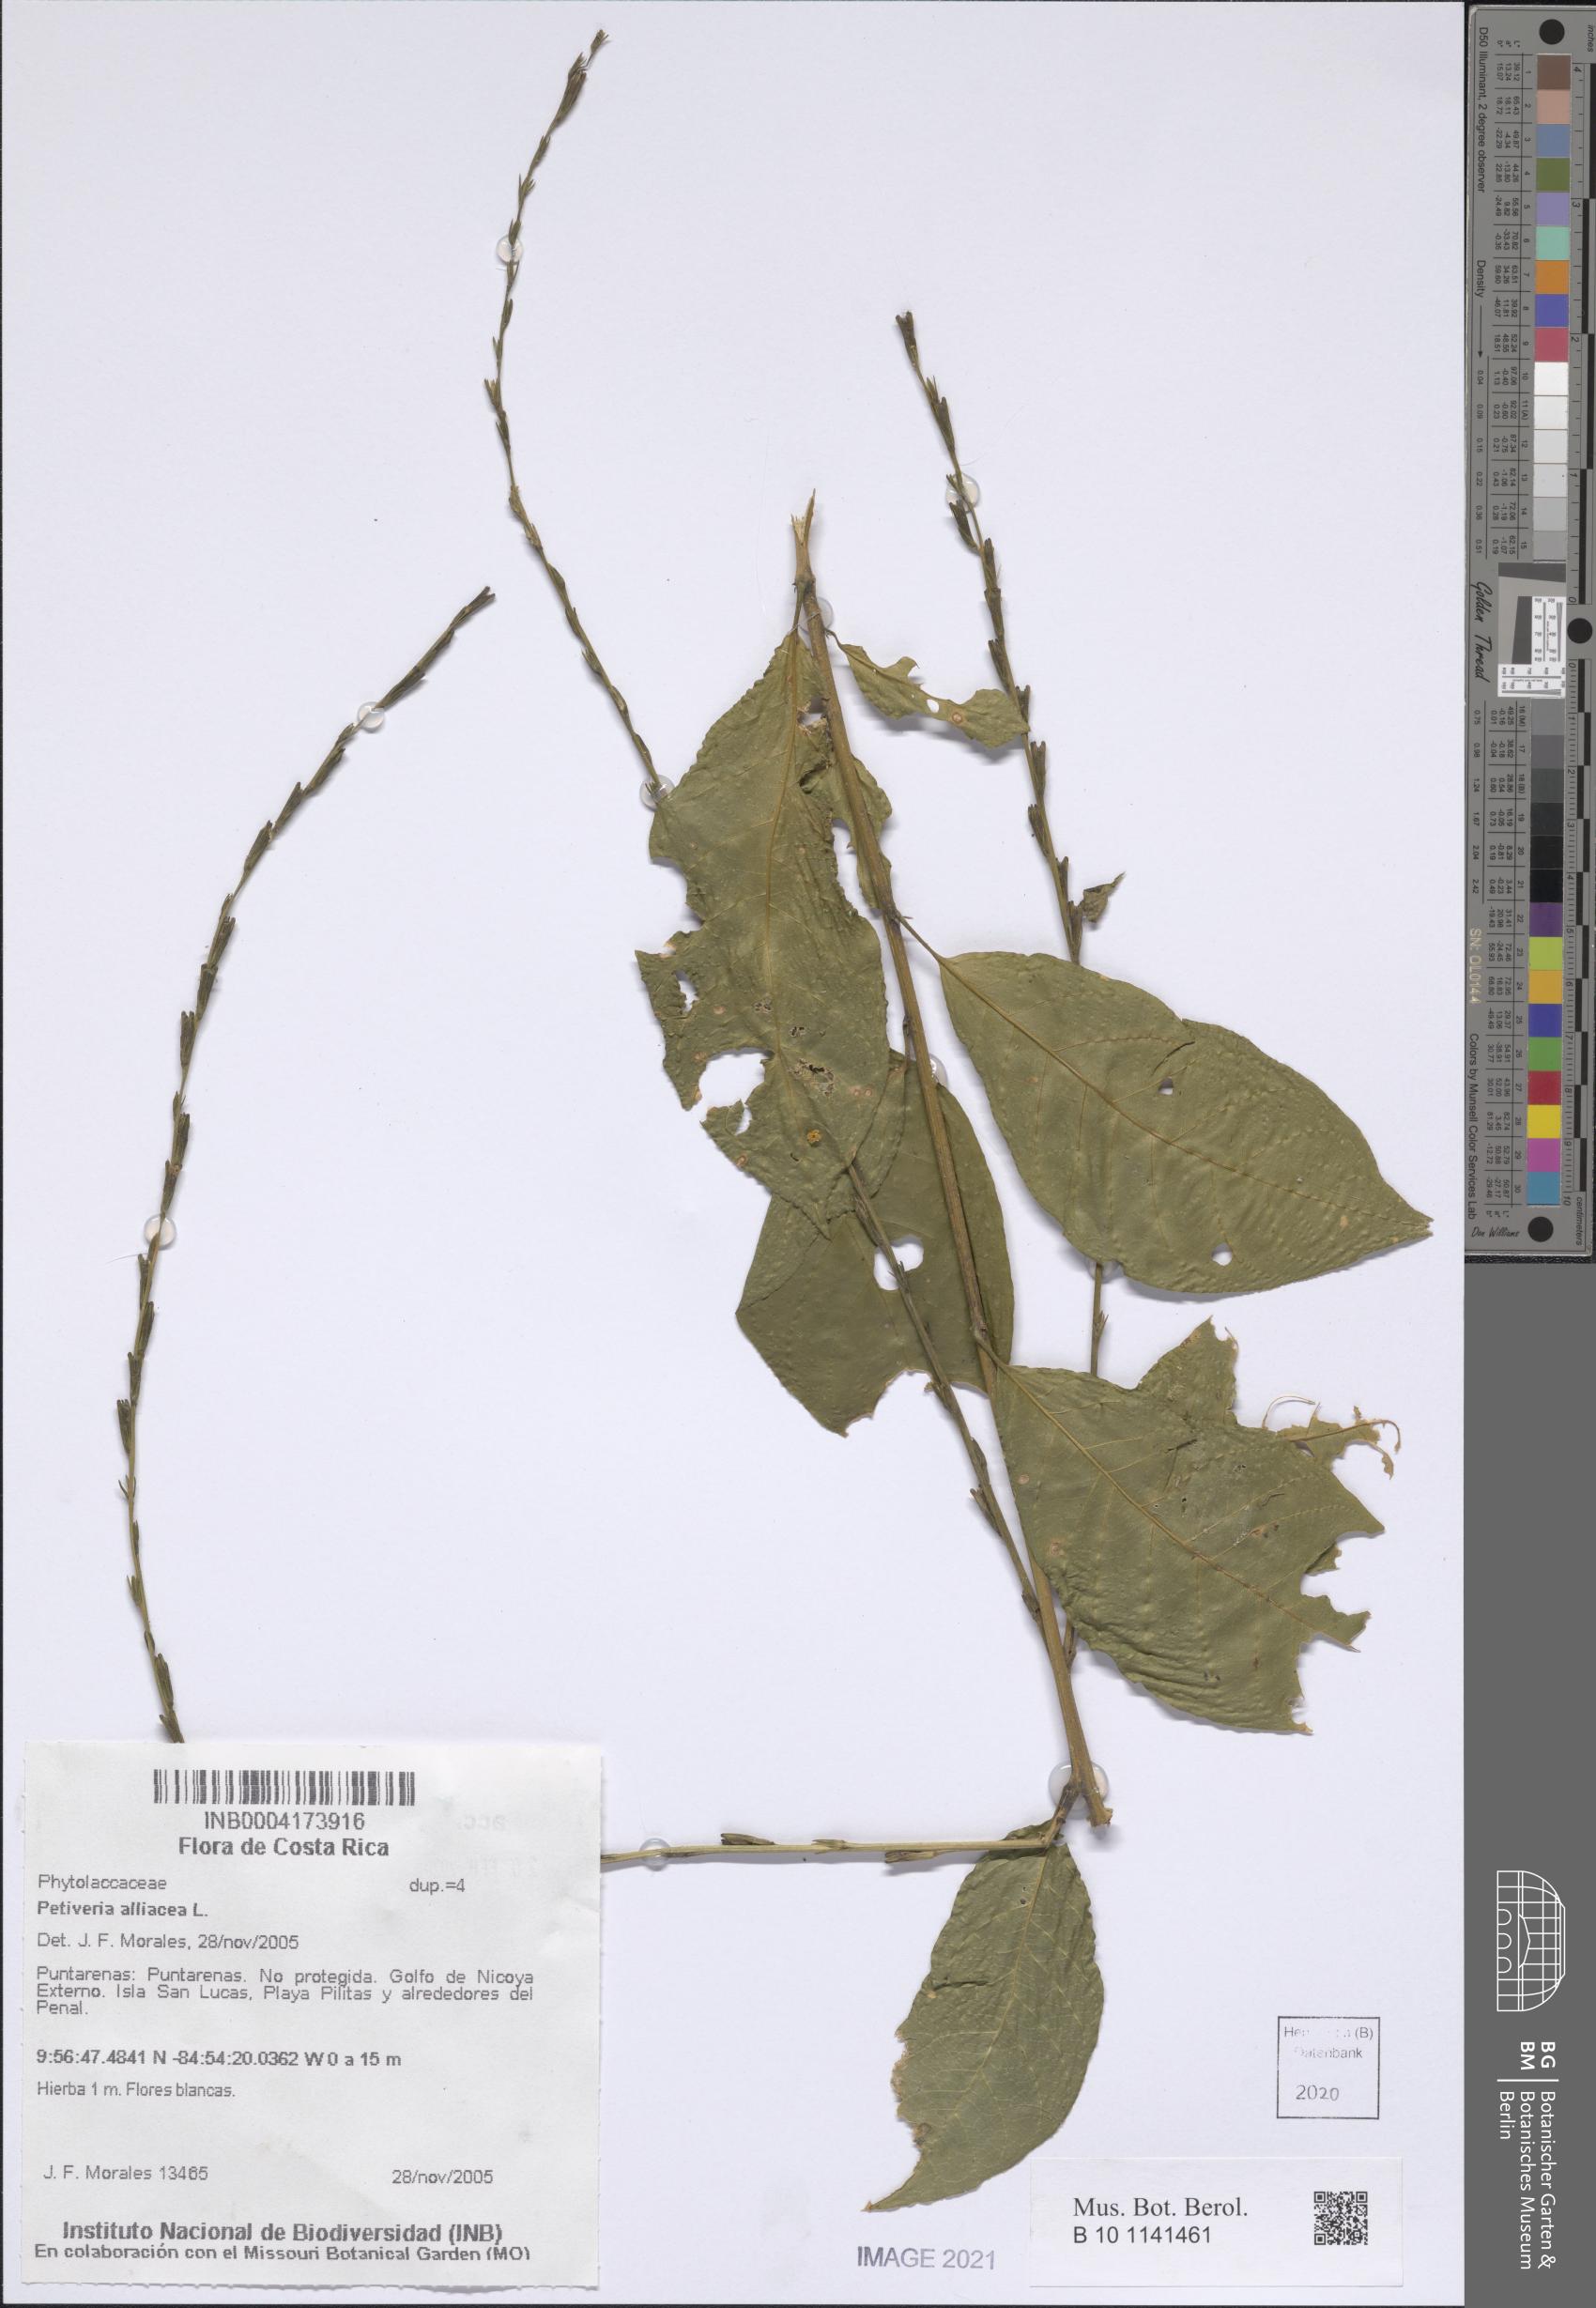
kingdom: Plantae
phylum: Tracheophyta
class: Magnoliopsida
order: Caryophyllales
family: Phytolaccaceae
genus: Petiveria
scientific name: Petiveria alliacea
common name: Garlicweed
